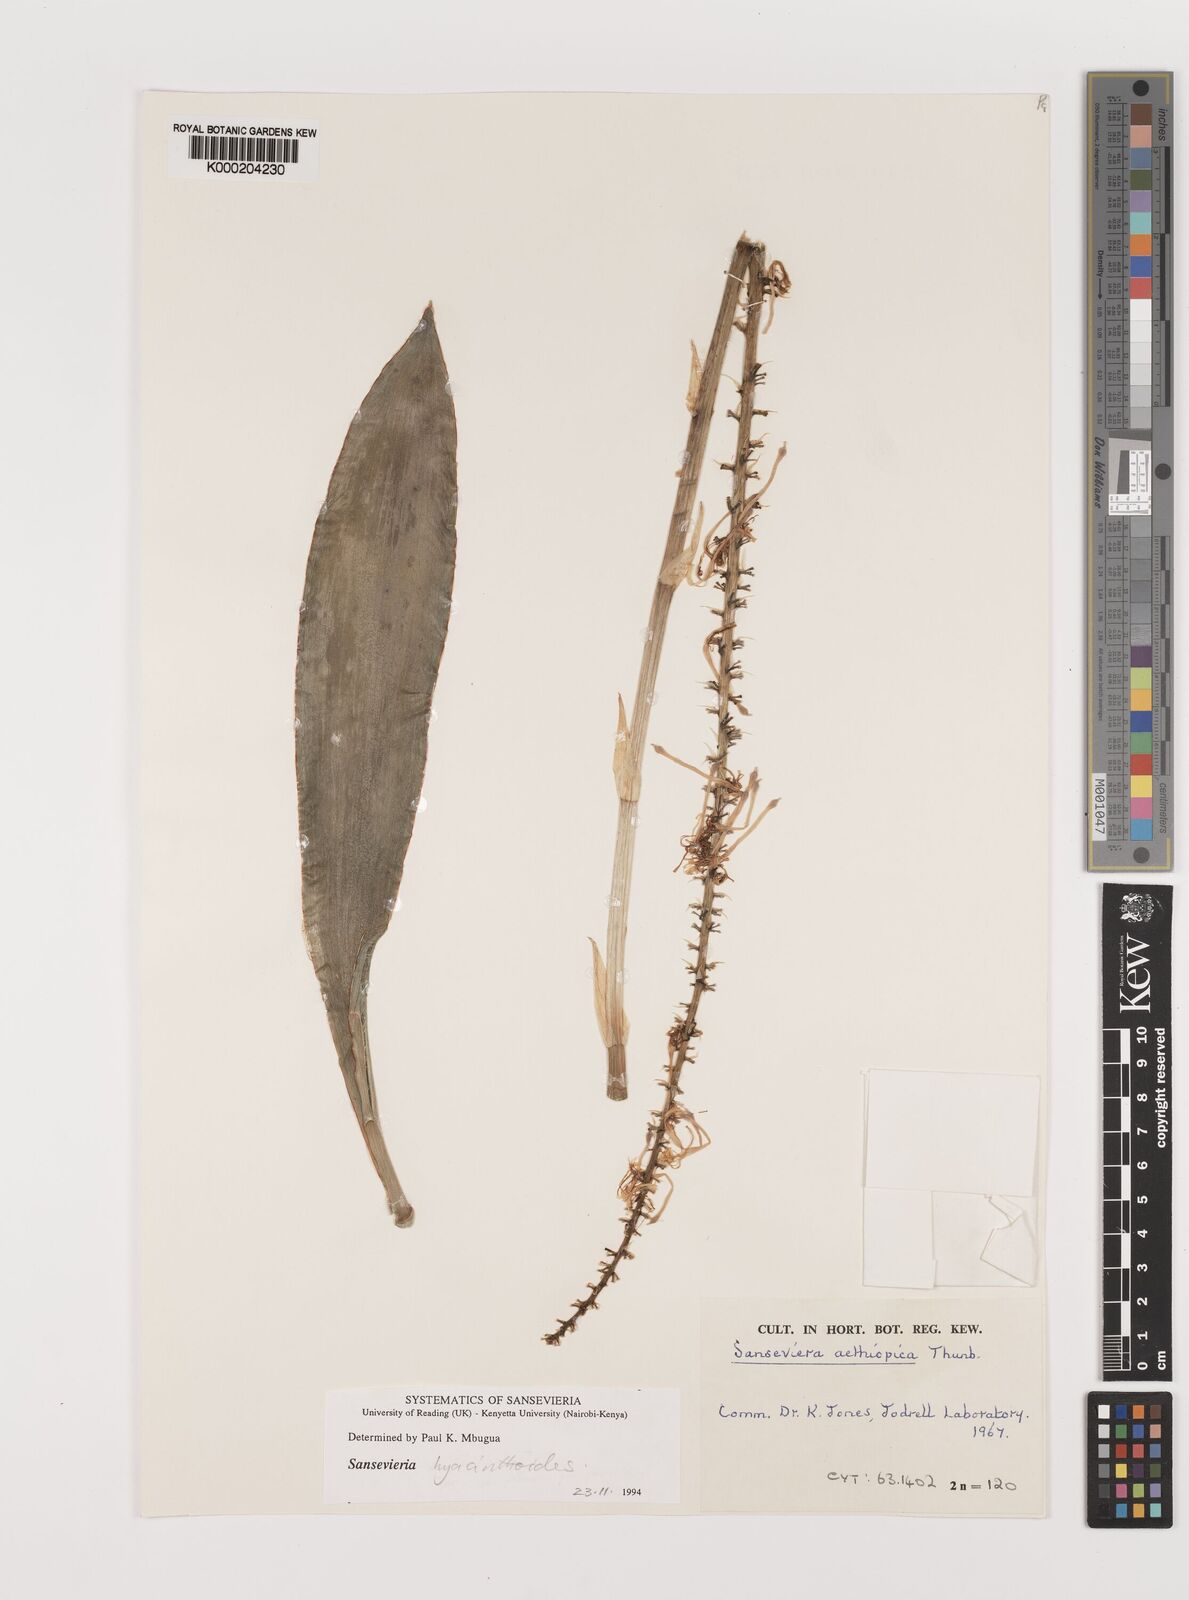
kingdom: Plantae
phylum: Tracheophyta
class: Liliopsida
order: Asparagales
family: Asparagaceae
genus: Dracaena
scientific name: Dracaena aethiopica
